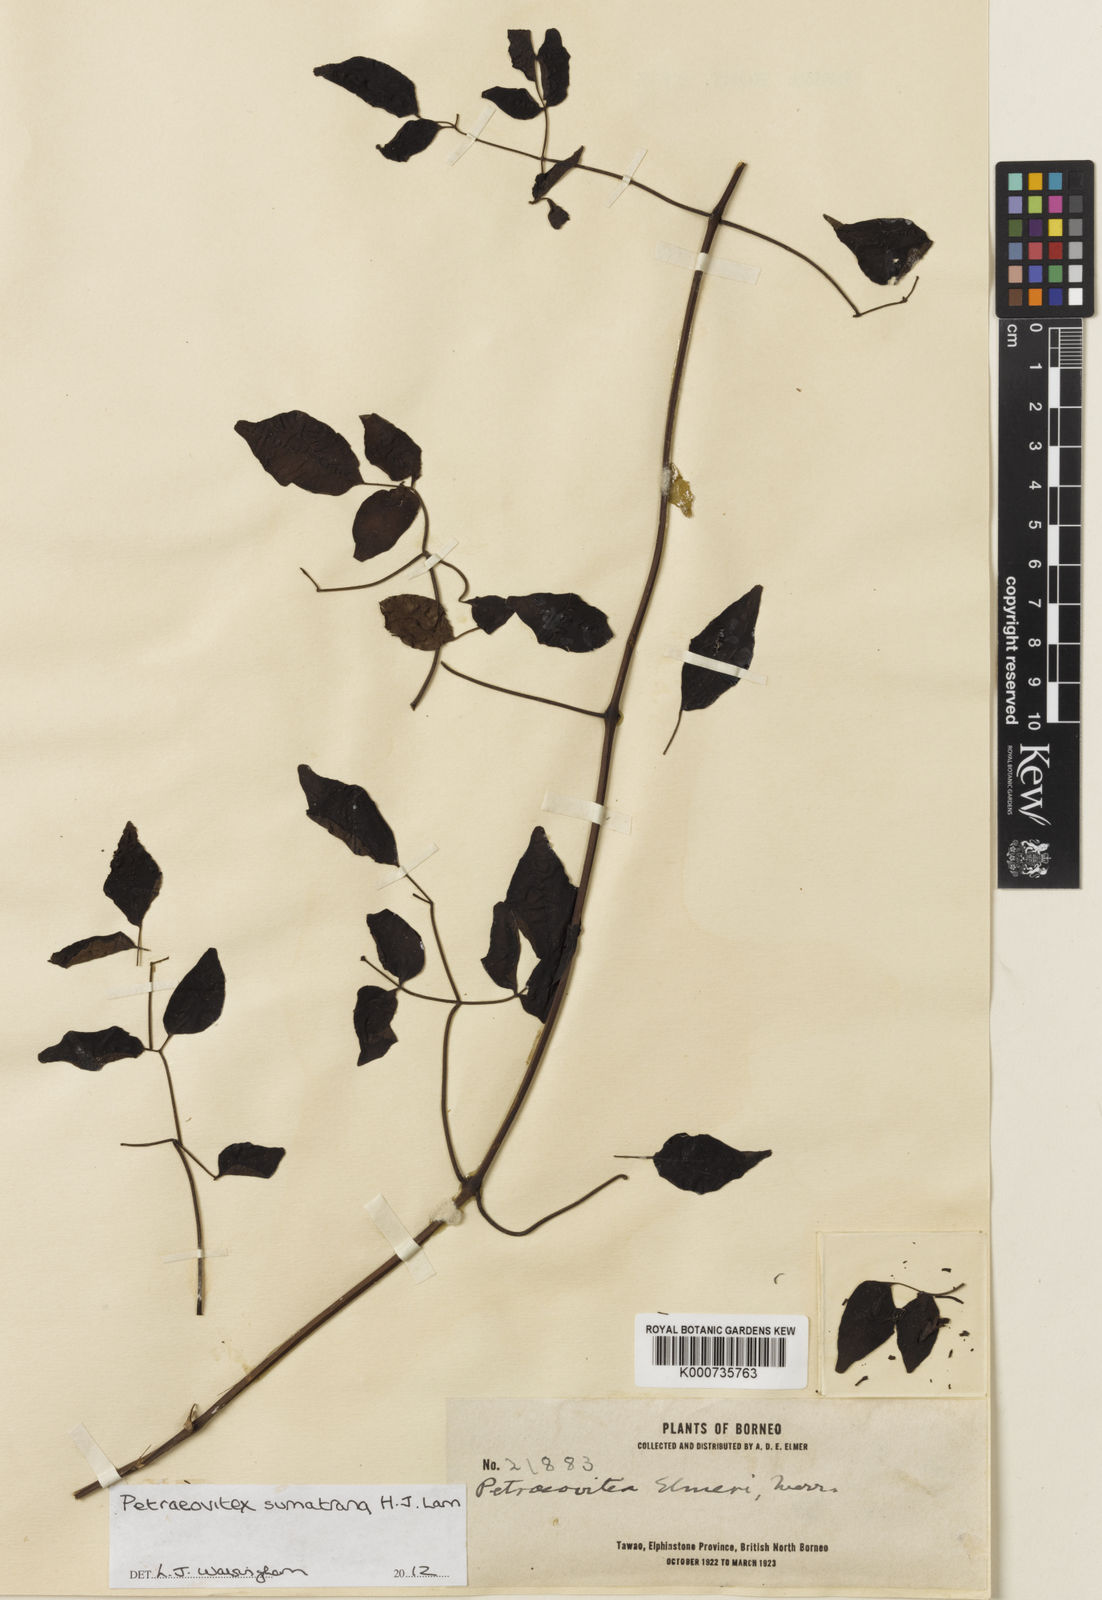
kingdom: Plantae
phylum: Tracheophyta
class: Magnoliopsida
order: Lamiales
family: Lamiaceae
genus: Petraeovitex
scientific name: Petraeovitex sumatrana
